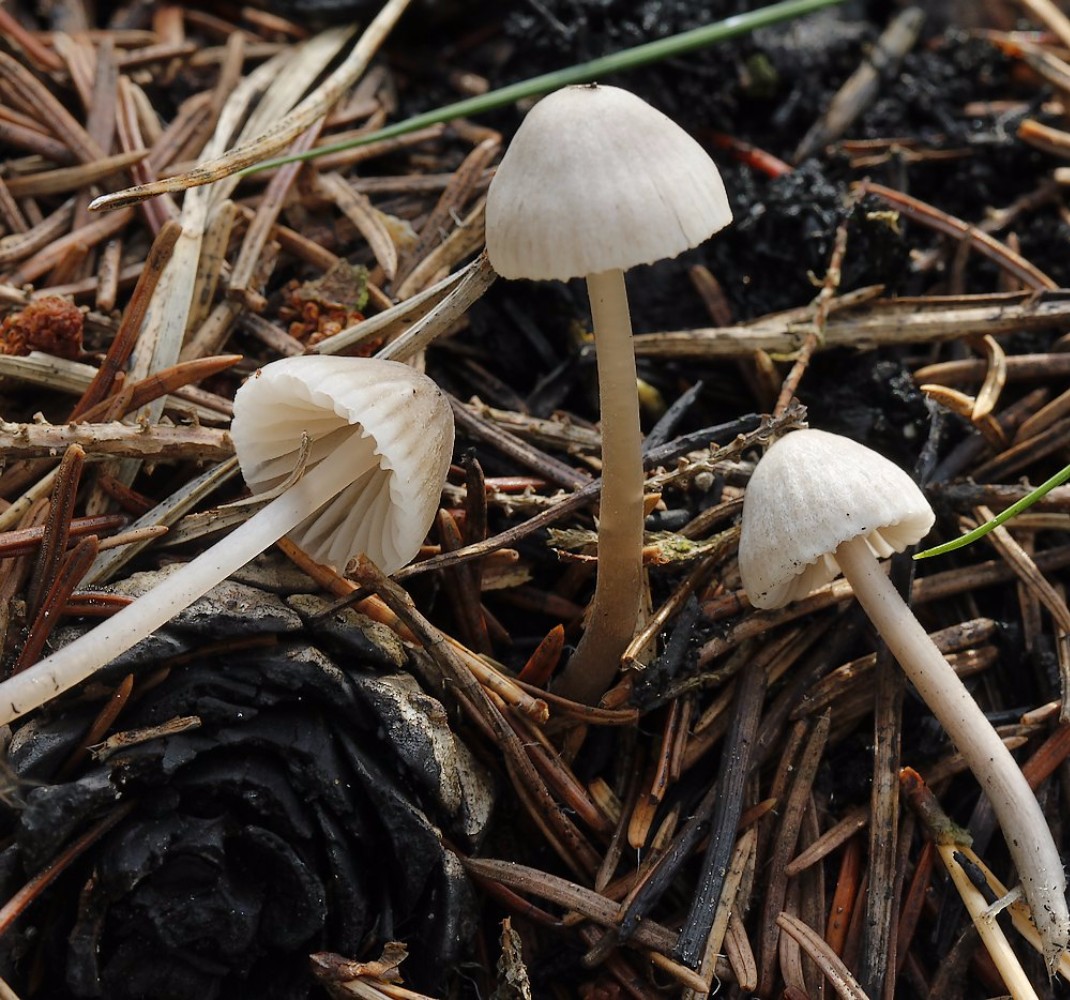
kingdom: Fungi
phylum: Basidiomycota
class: Agaricomycetes
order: Agaricales
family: Mycenaceae
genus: Mycena
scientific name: Mycena galopus
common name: hvidmælket huesvamp
